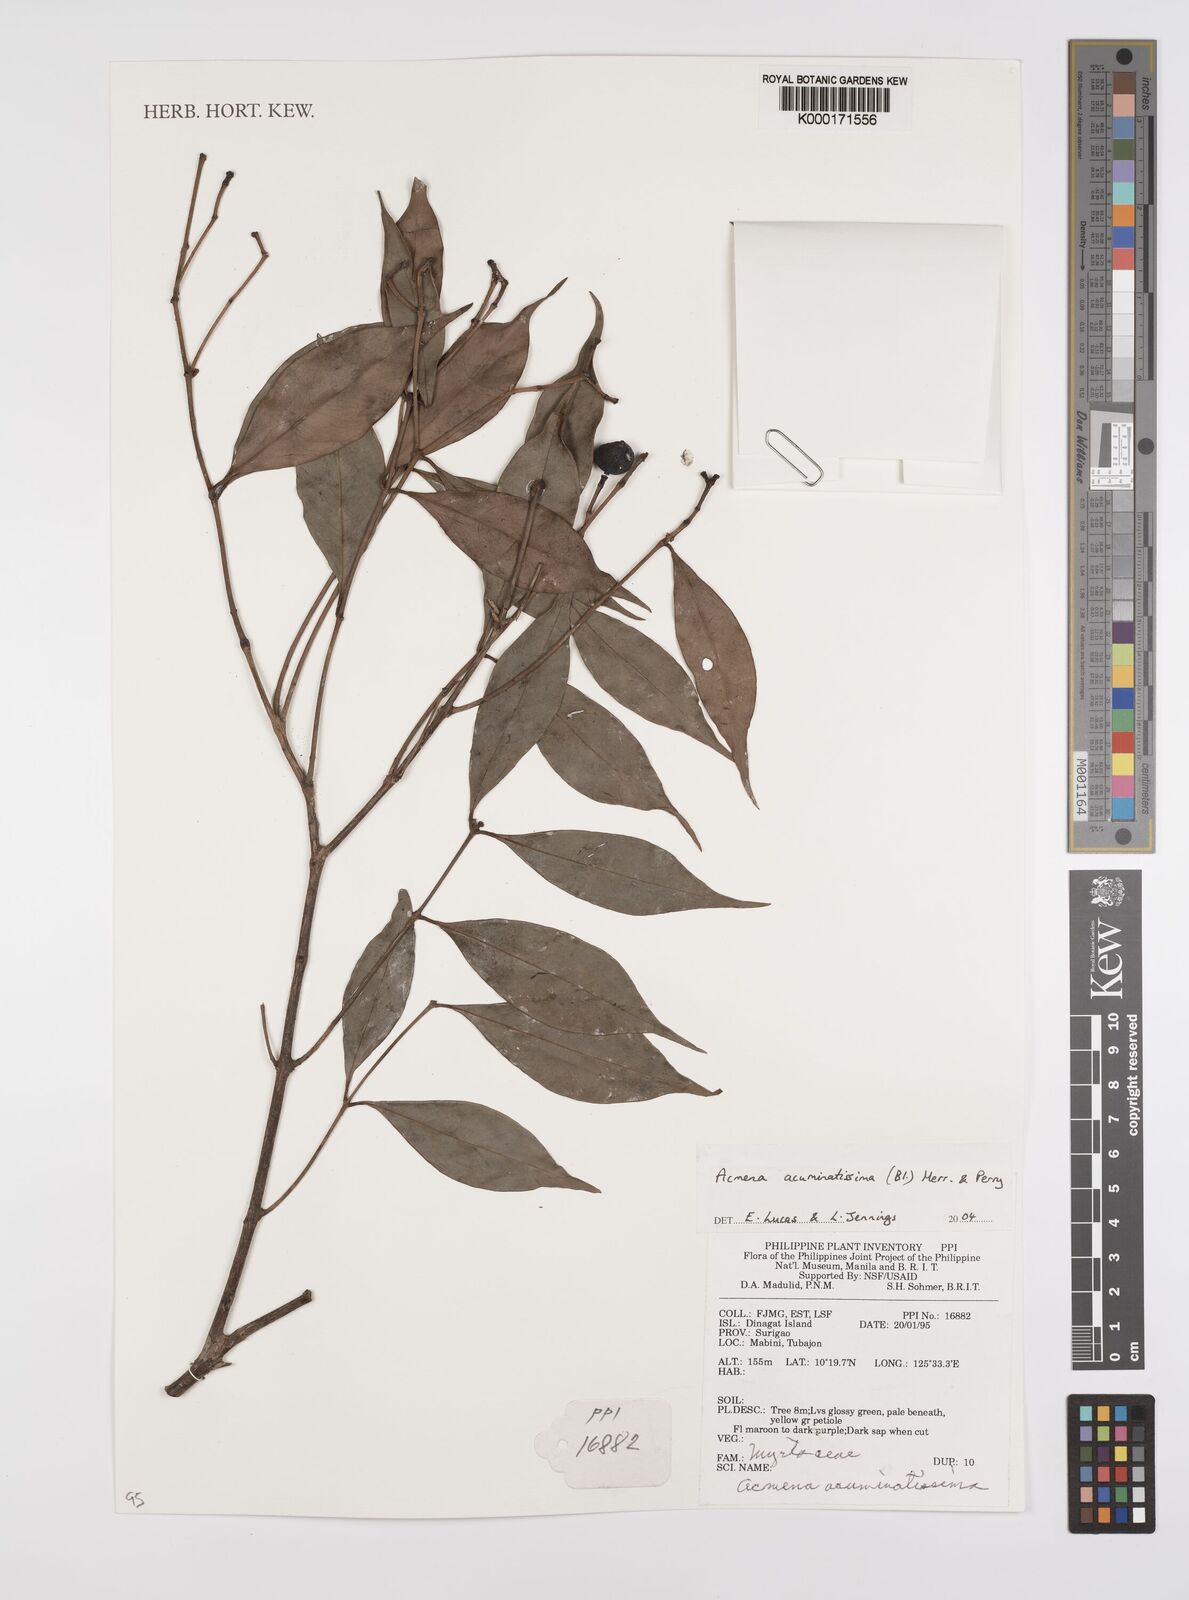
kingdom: Plantae
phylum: Tracheophyta
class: Magnoliopsida
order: Myrtales
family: Myrtaceae
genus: Syzygium
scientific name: Syzygium acuminatissimum
